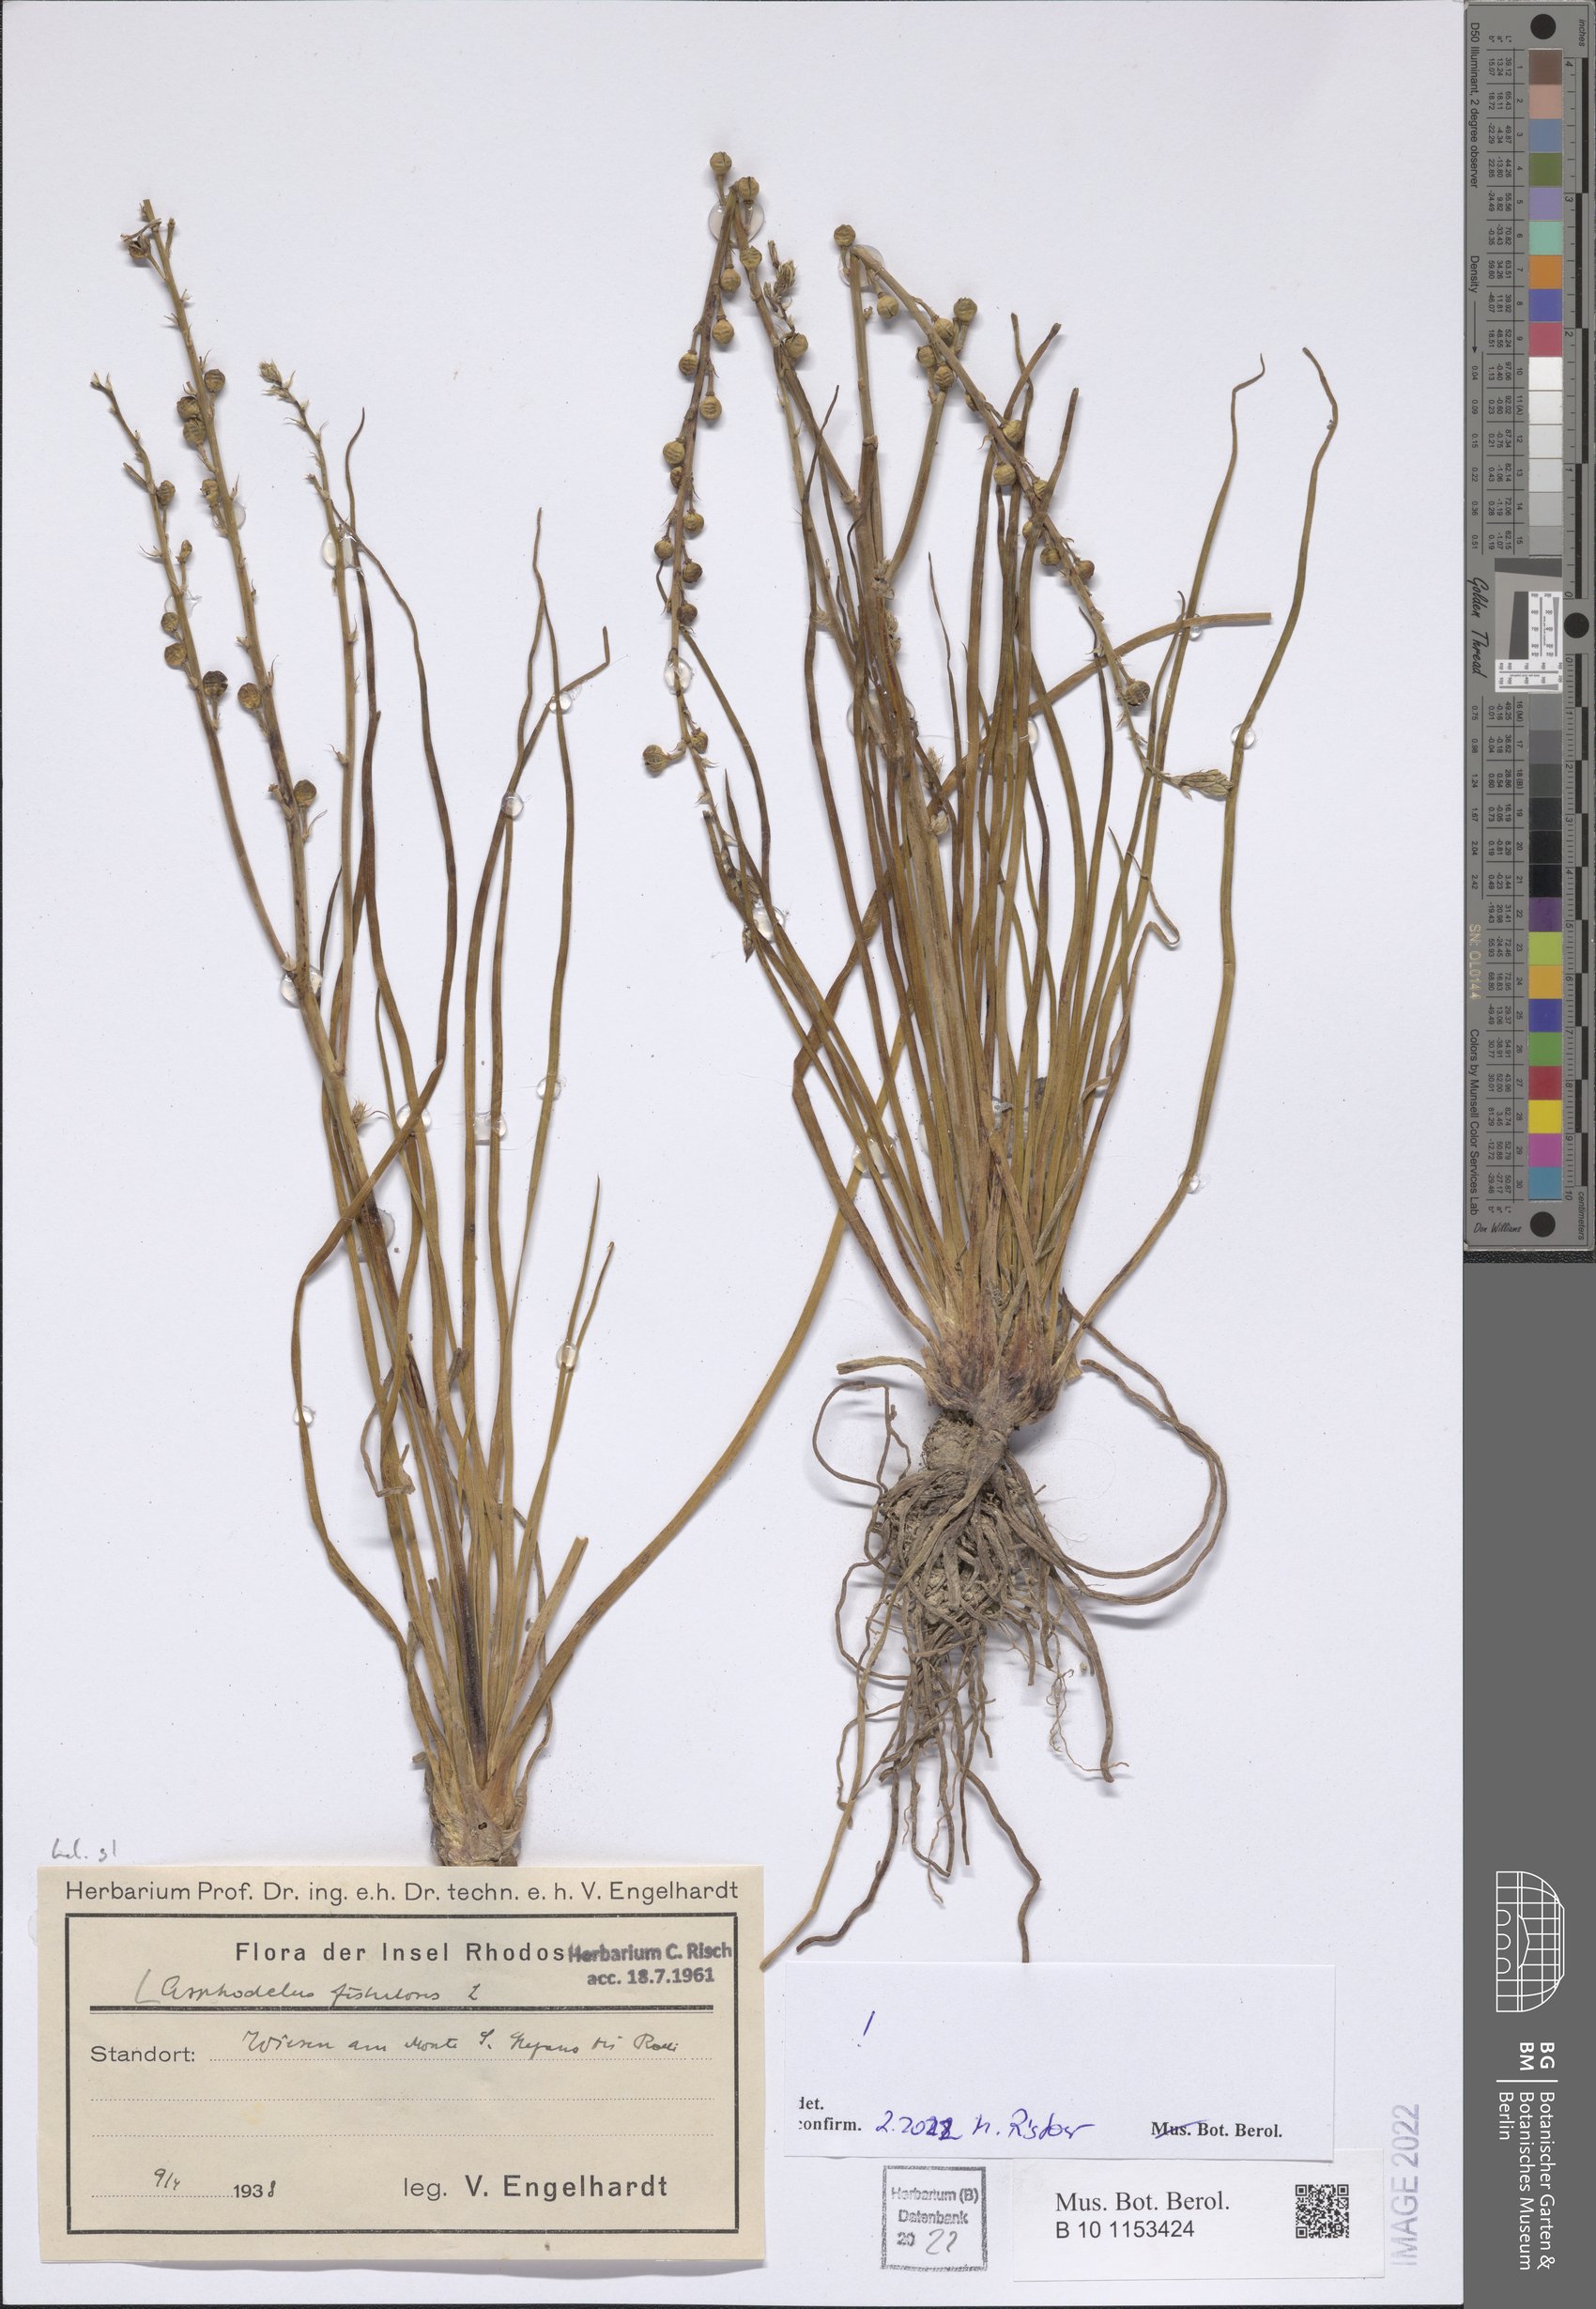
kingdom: Plantae
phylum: Tracheophyta
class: Liliopsida
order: Asparagales
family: Asphodelaceae
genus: Asphodelus
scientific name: Asphodelus fistulosus
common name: Onionweed
